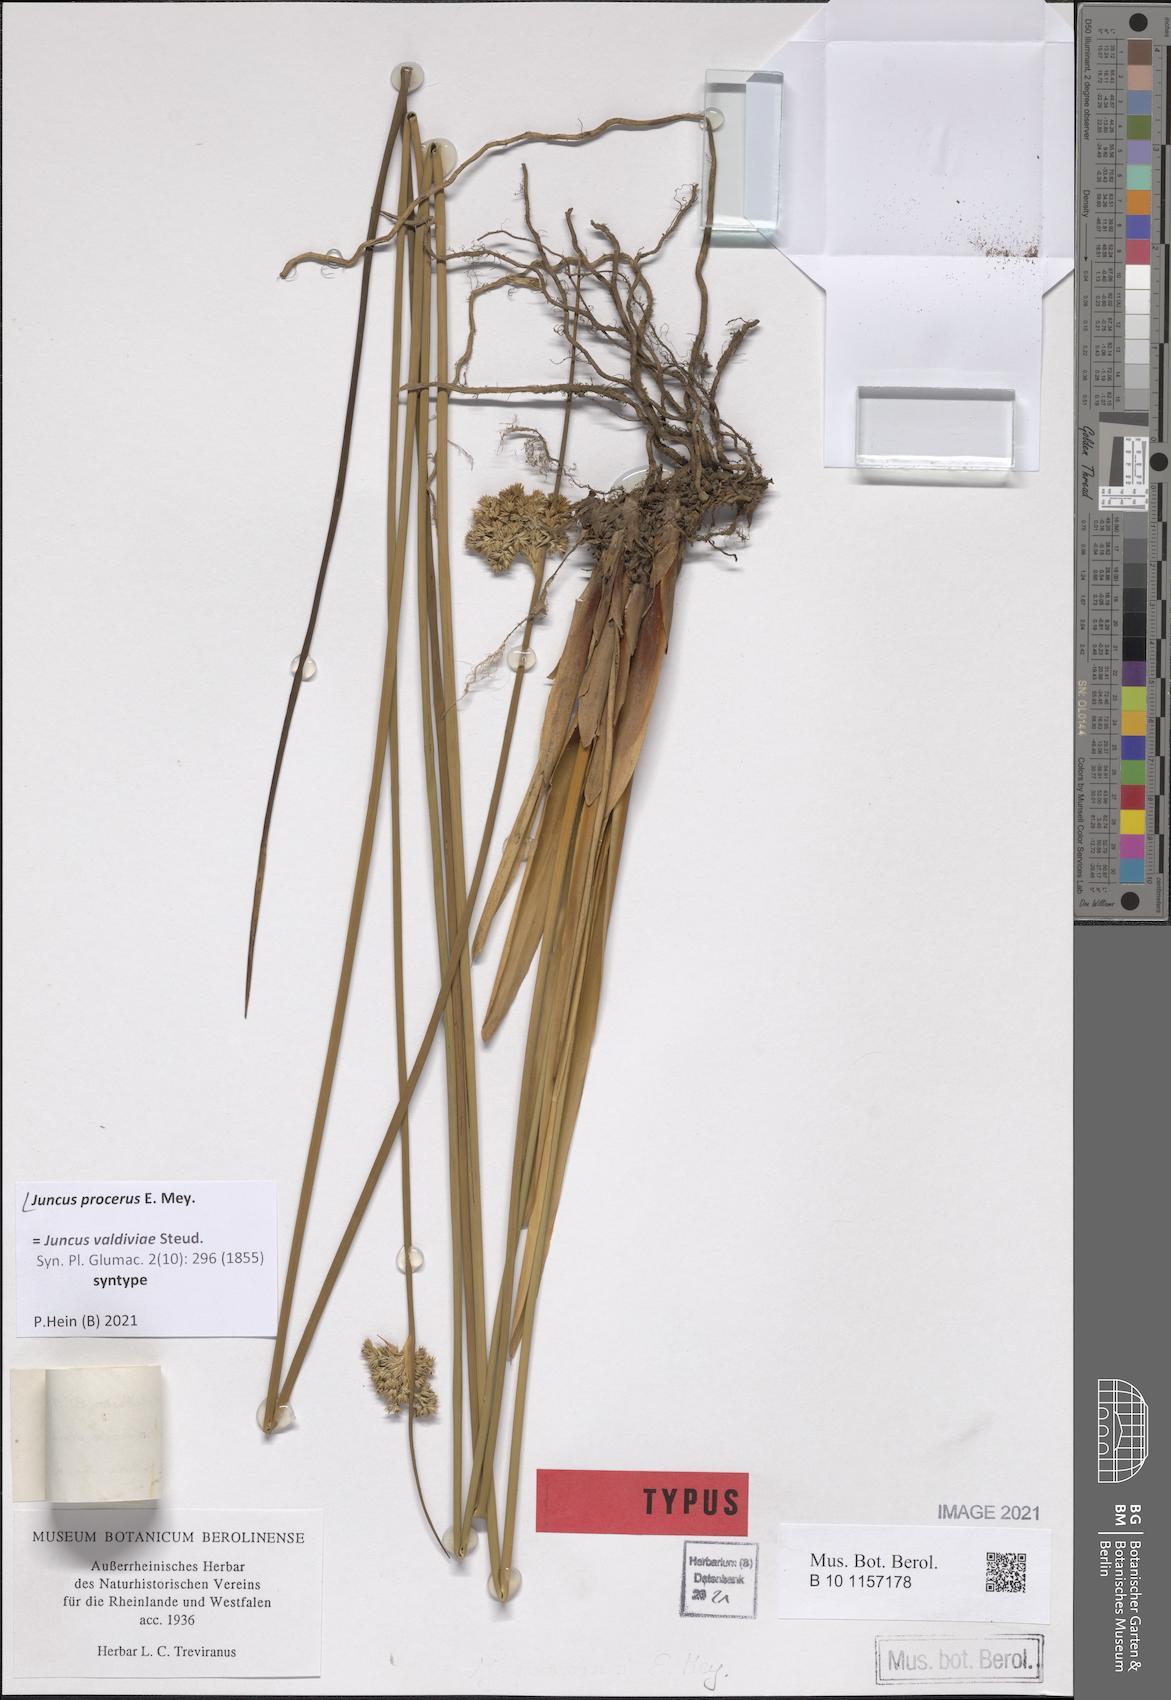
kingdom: Plantae
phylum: Tracheophyta
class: Liliopsida
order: Poales
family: Juncaceae
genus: Juncus
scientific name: Juncus procerus
